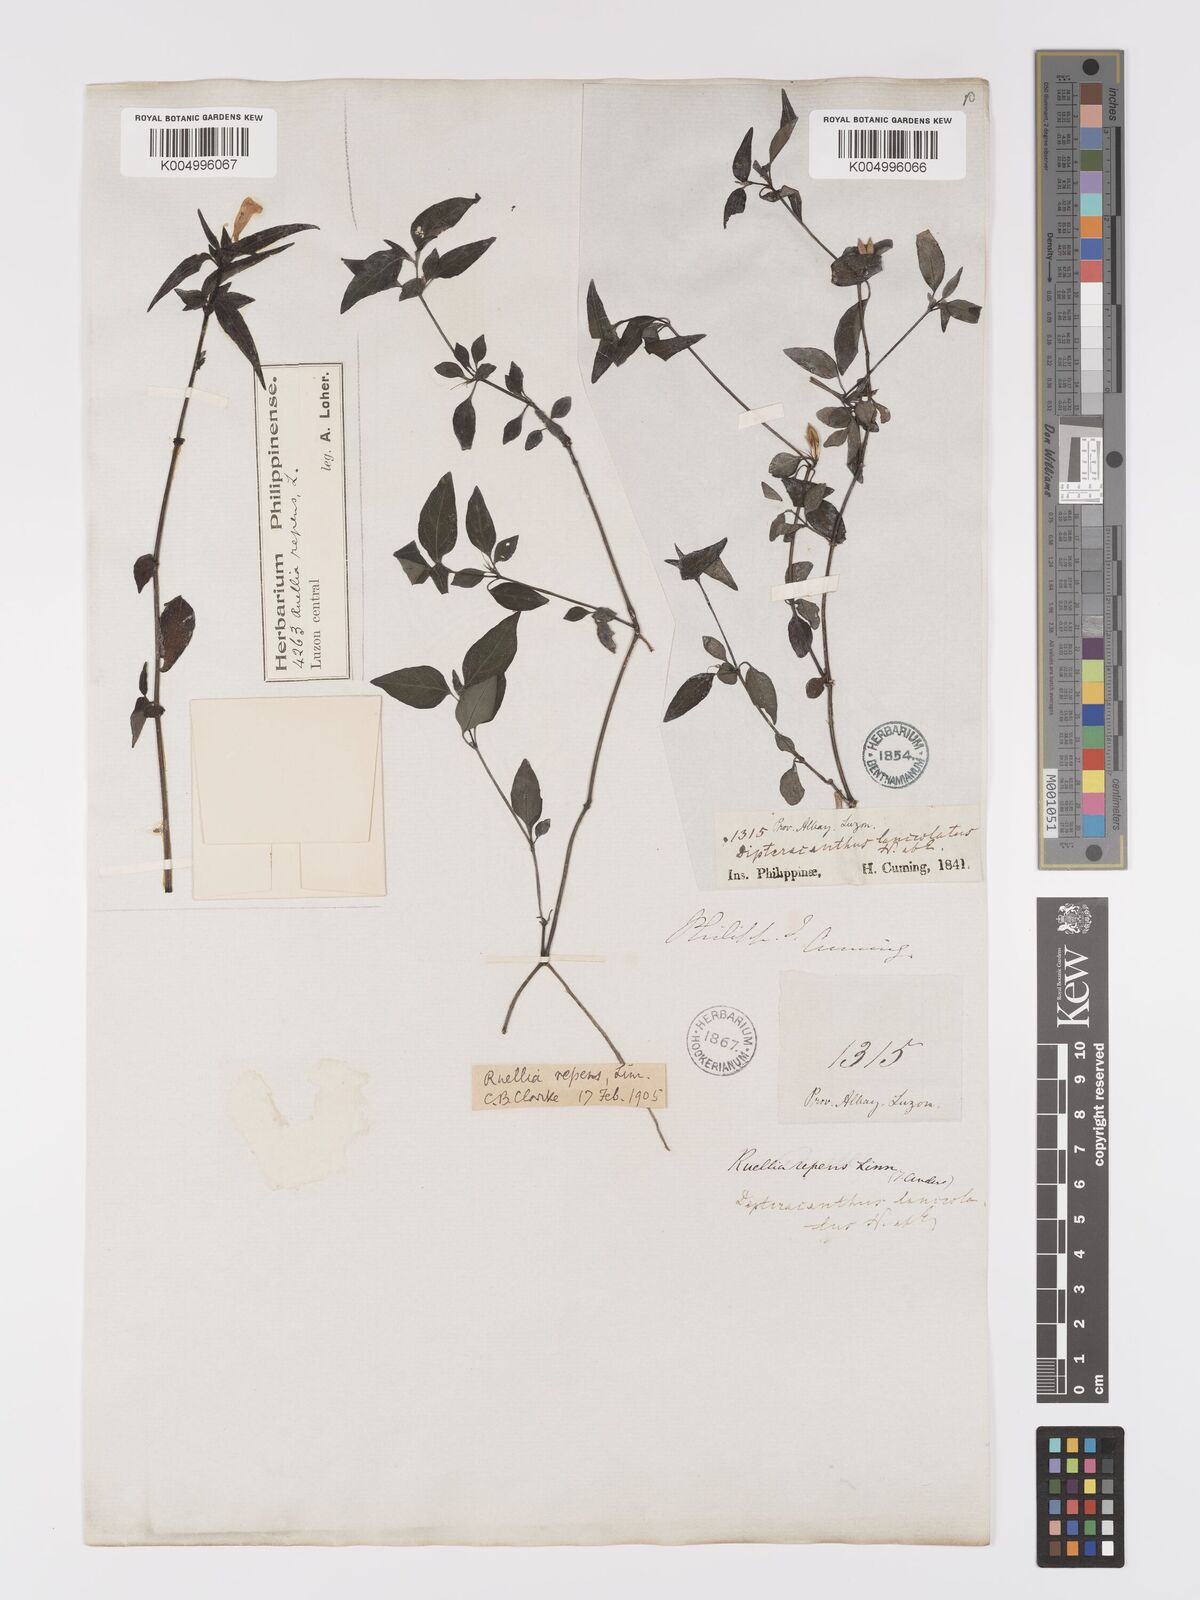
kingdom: Plantae
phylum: Tracheophyta
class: Magnoliopsida
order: Lamiales
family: Acanthaceae
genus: Ruellia
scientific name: Ruellia
